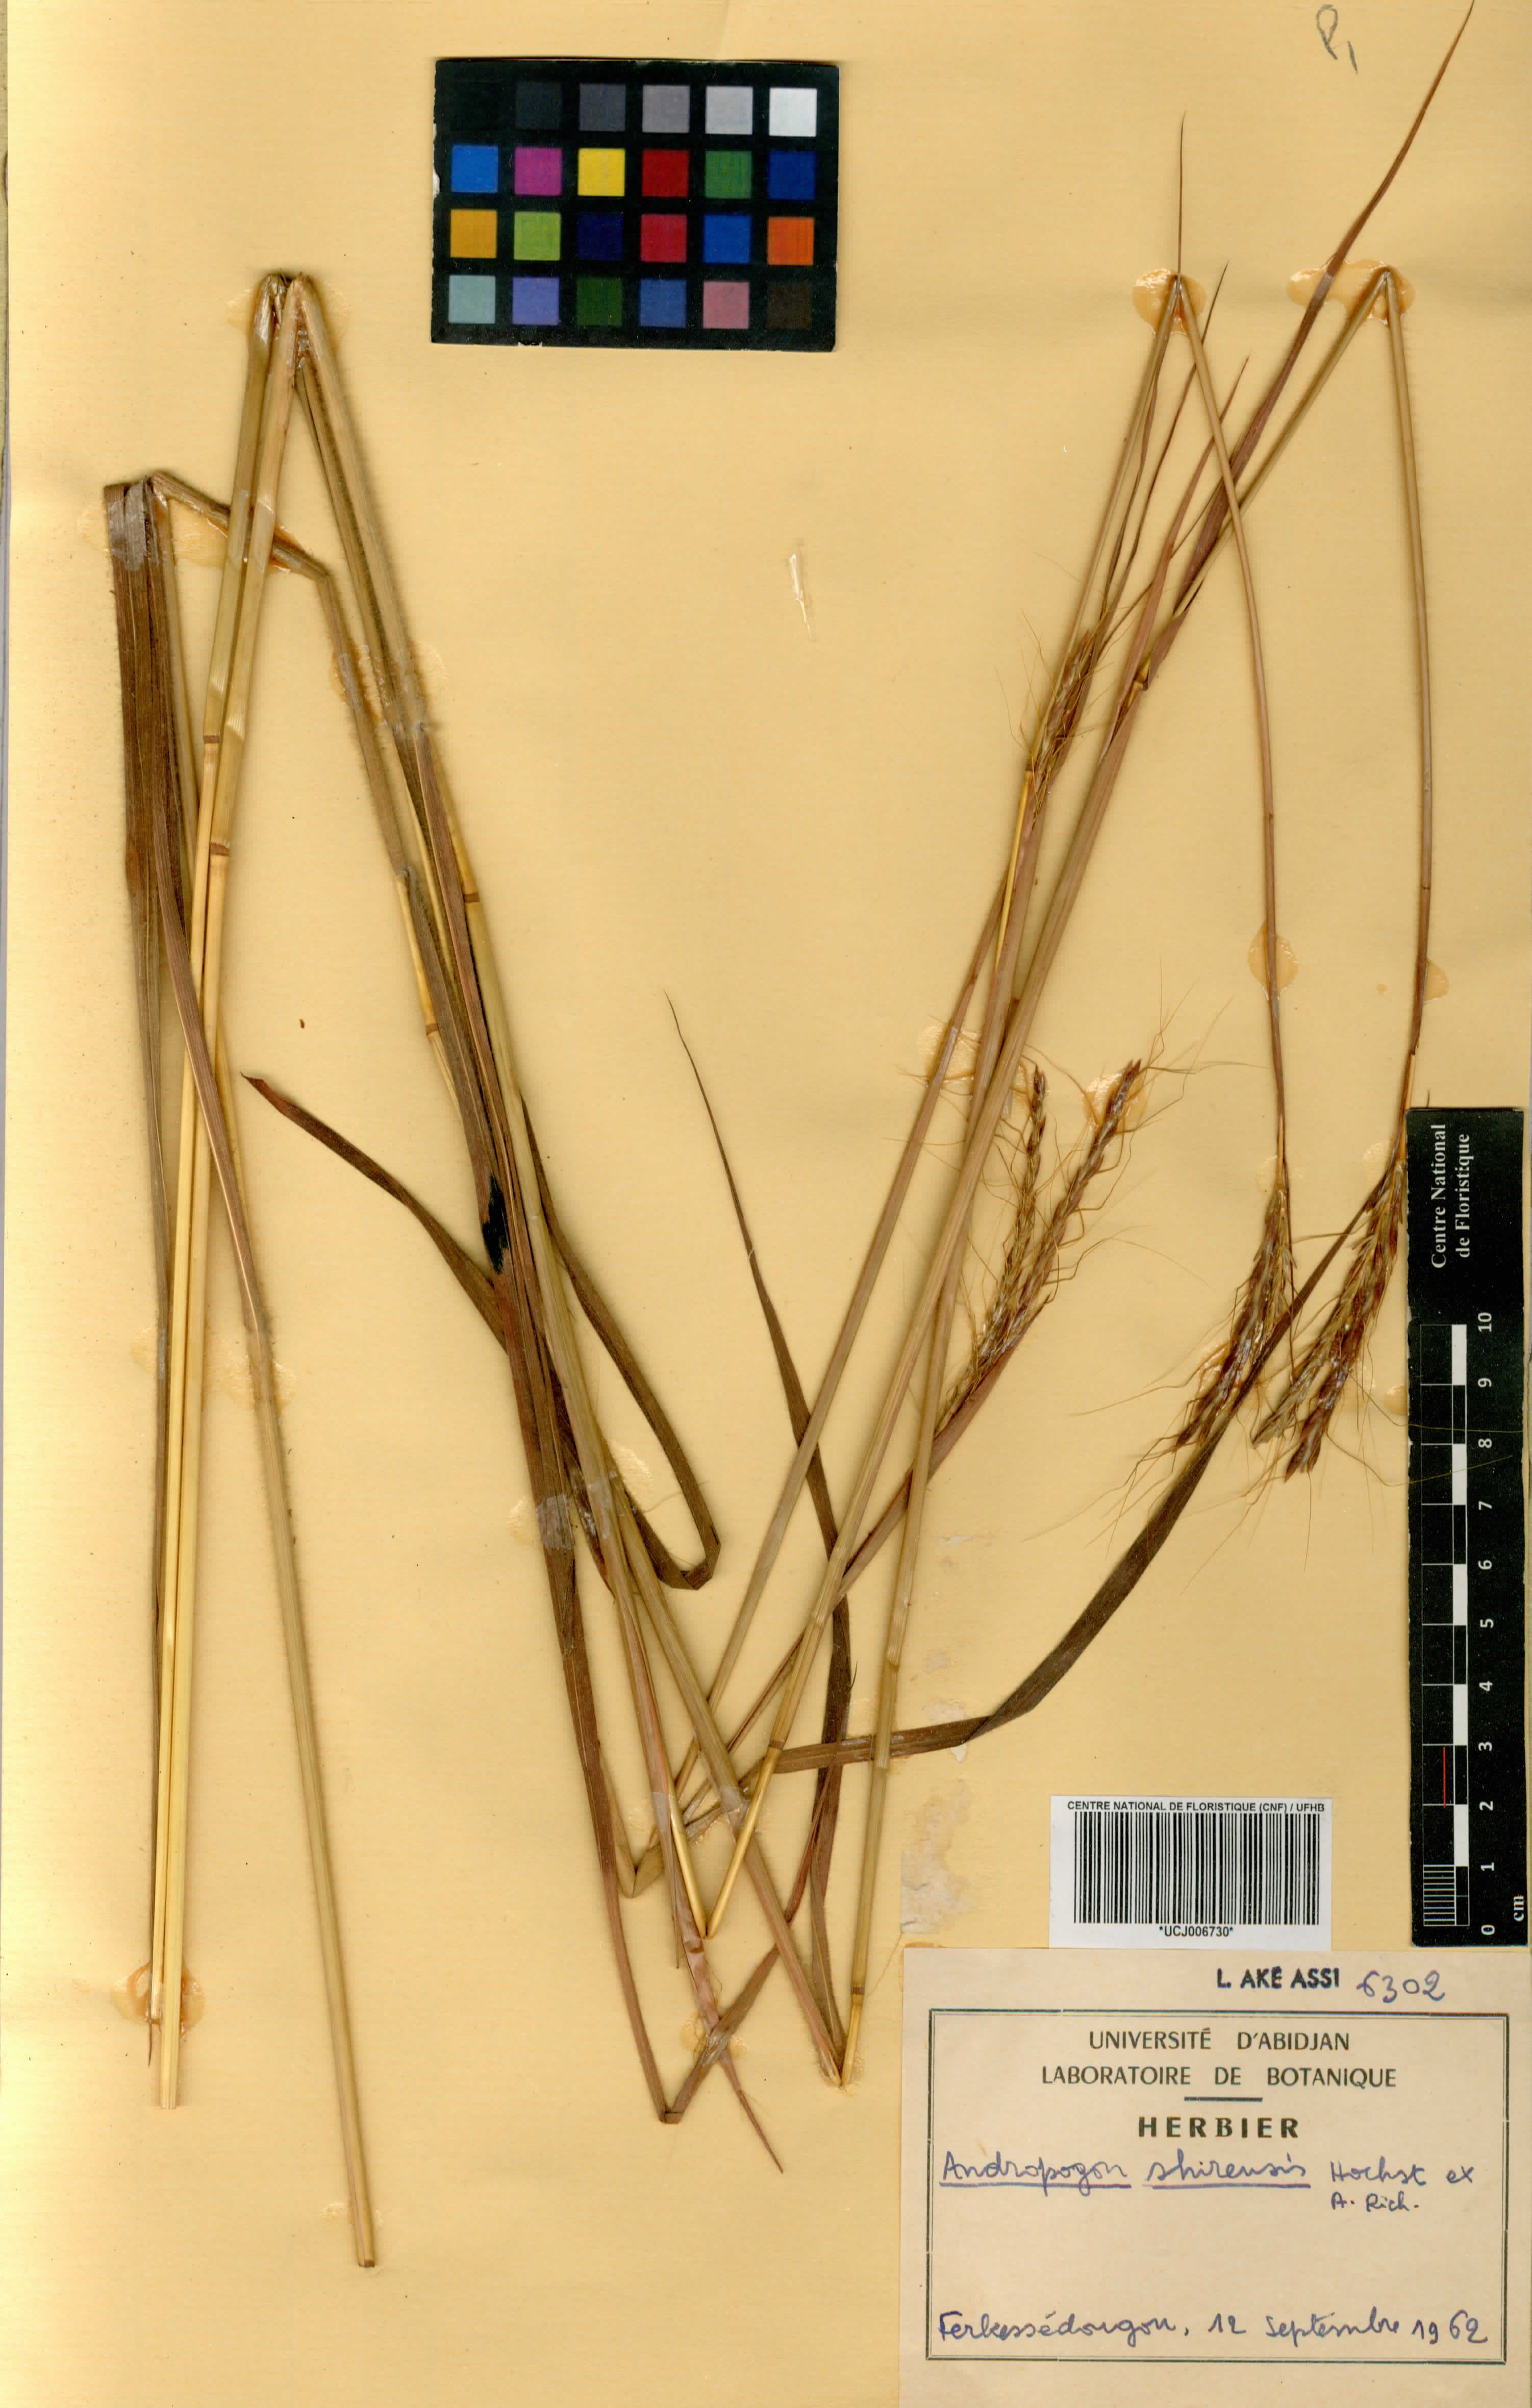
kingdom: Plantae
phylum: Tracheophyta
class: Liliopsida
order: Poales
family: Poaceae
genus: Andropogon
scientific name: Andropogon tectorum
